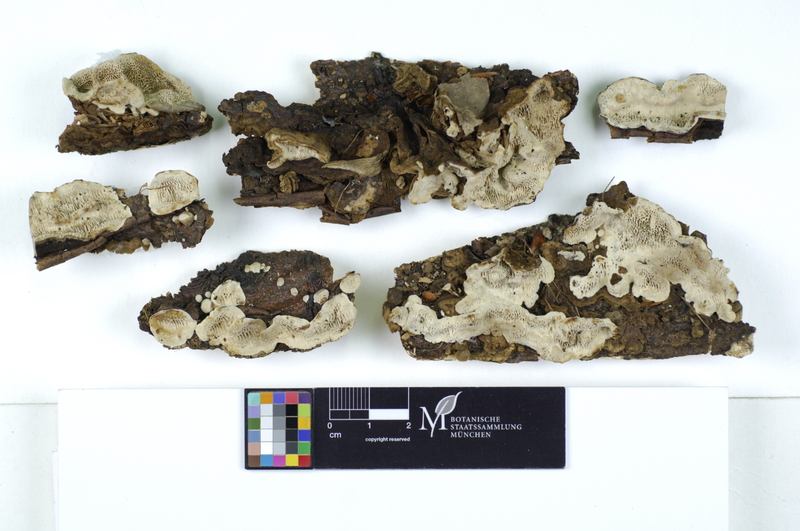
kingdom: Fungi
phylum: Basidiomycota
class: Agaricomycetes
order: Polyporales
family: Polyporaceae
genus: Podofomes
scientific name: Podofomes mollis
